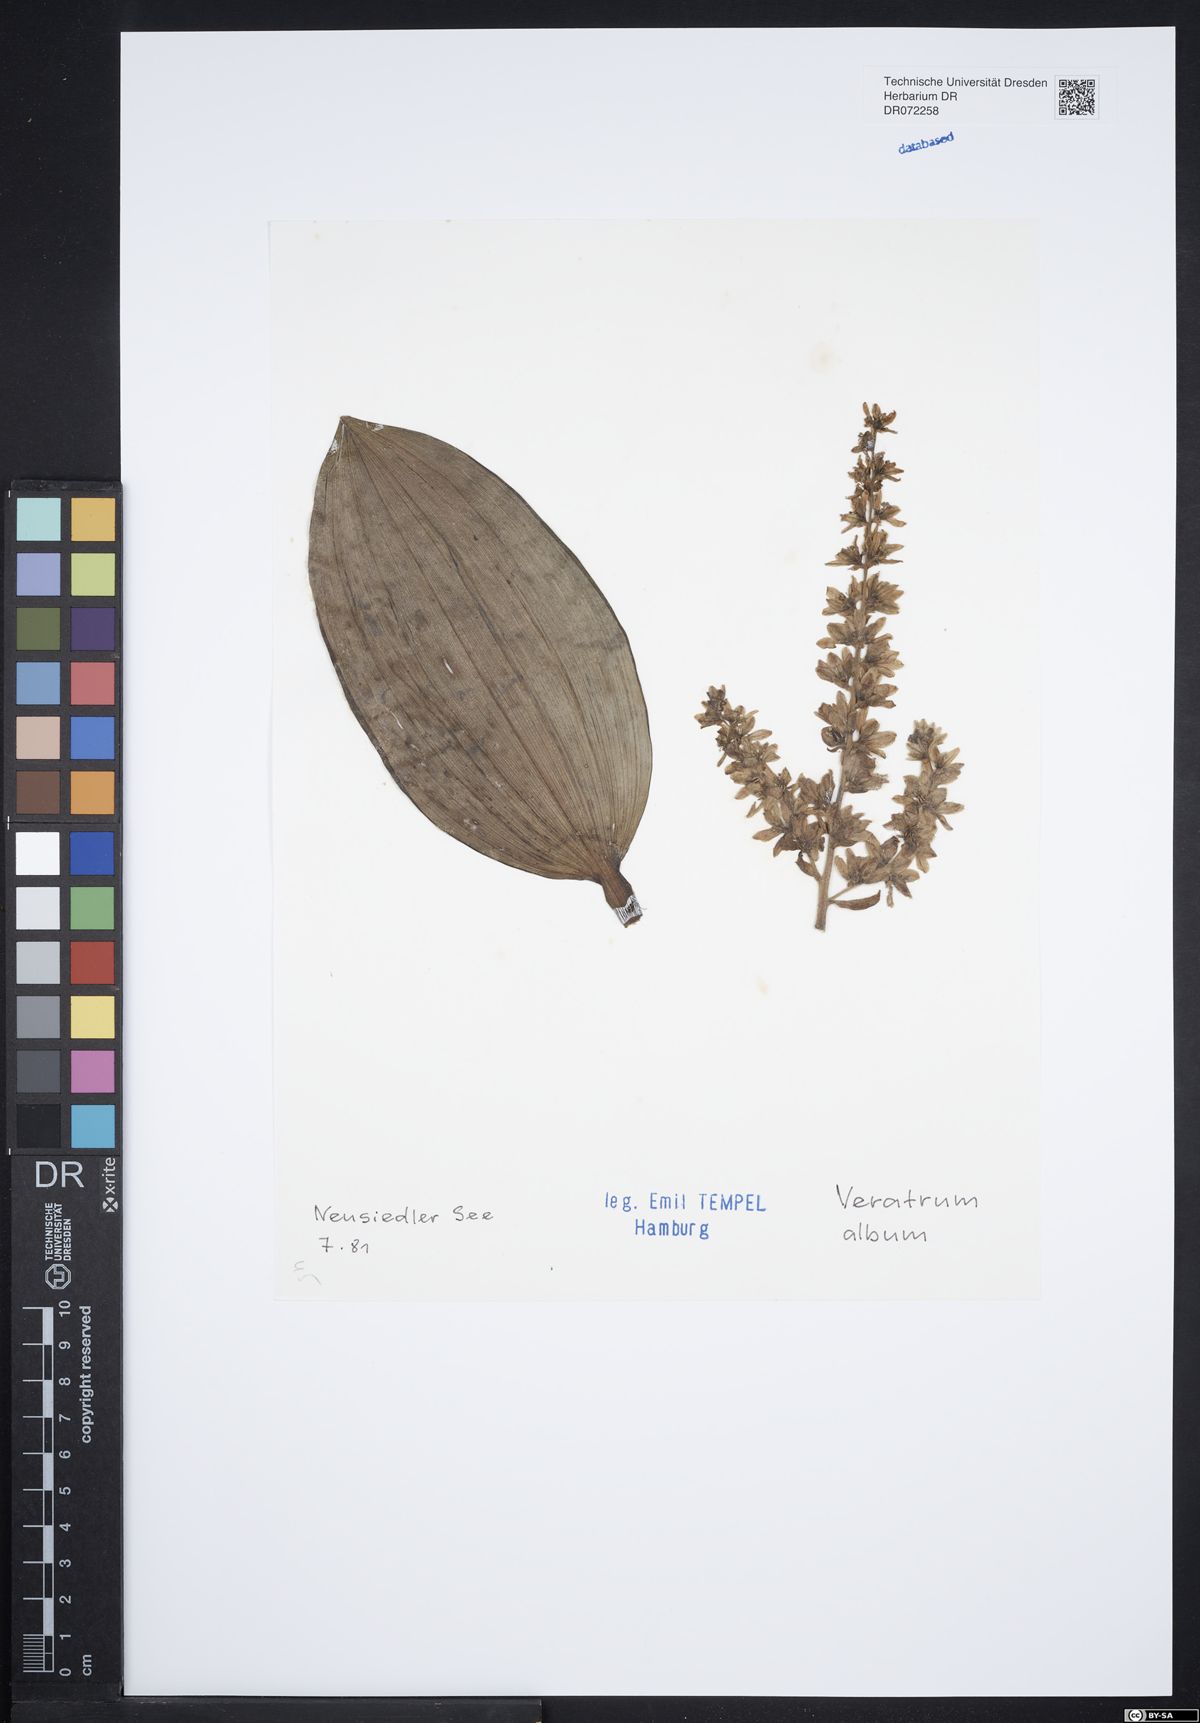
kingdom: Plantae
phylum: Tracheophyta
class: Liliopsida
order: Liliales
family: Melanthiaceae
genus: Veratrum
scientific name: Veratrum album
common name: White veratrum
